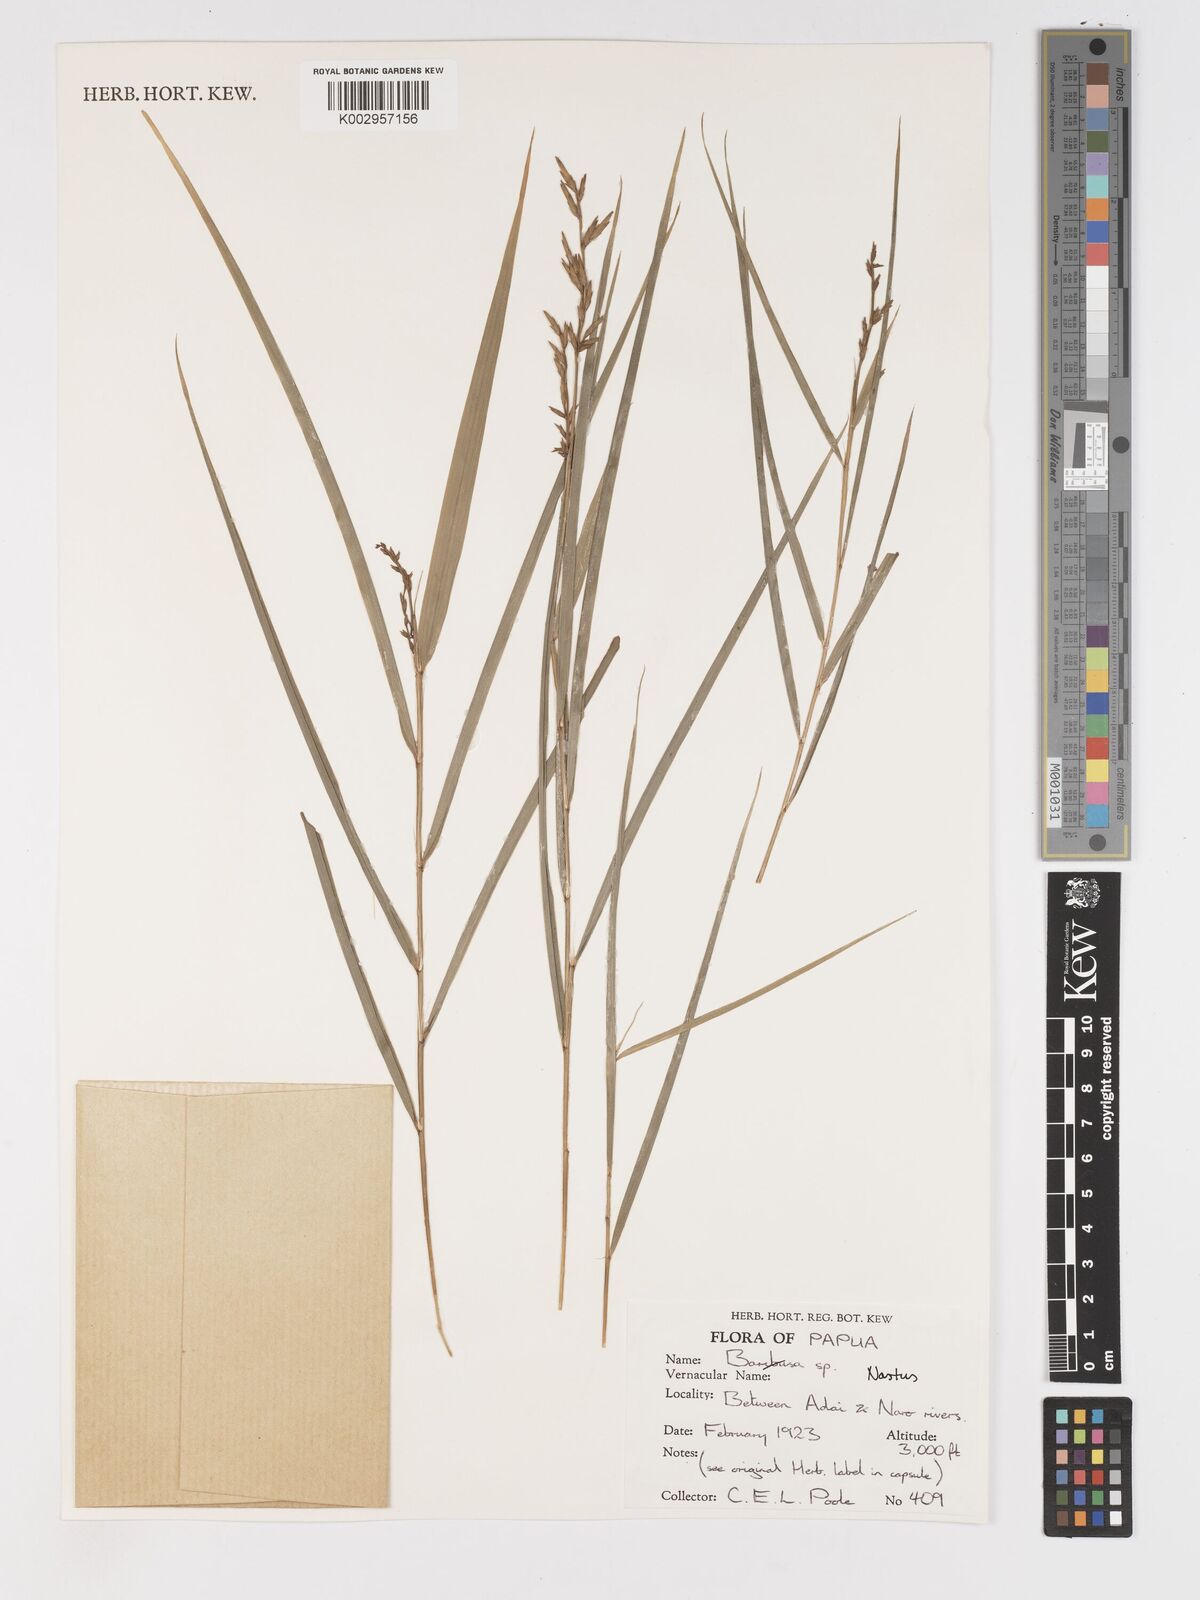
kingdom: Plantae
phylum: Tracheophyta
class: Liliopsida
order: Poales
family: Poaceae
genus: Chloothamnus
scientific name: Chloothamnus
